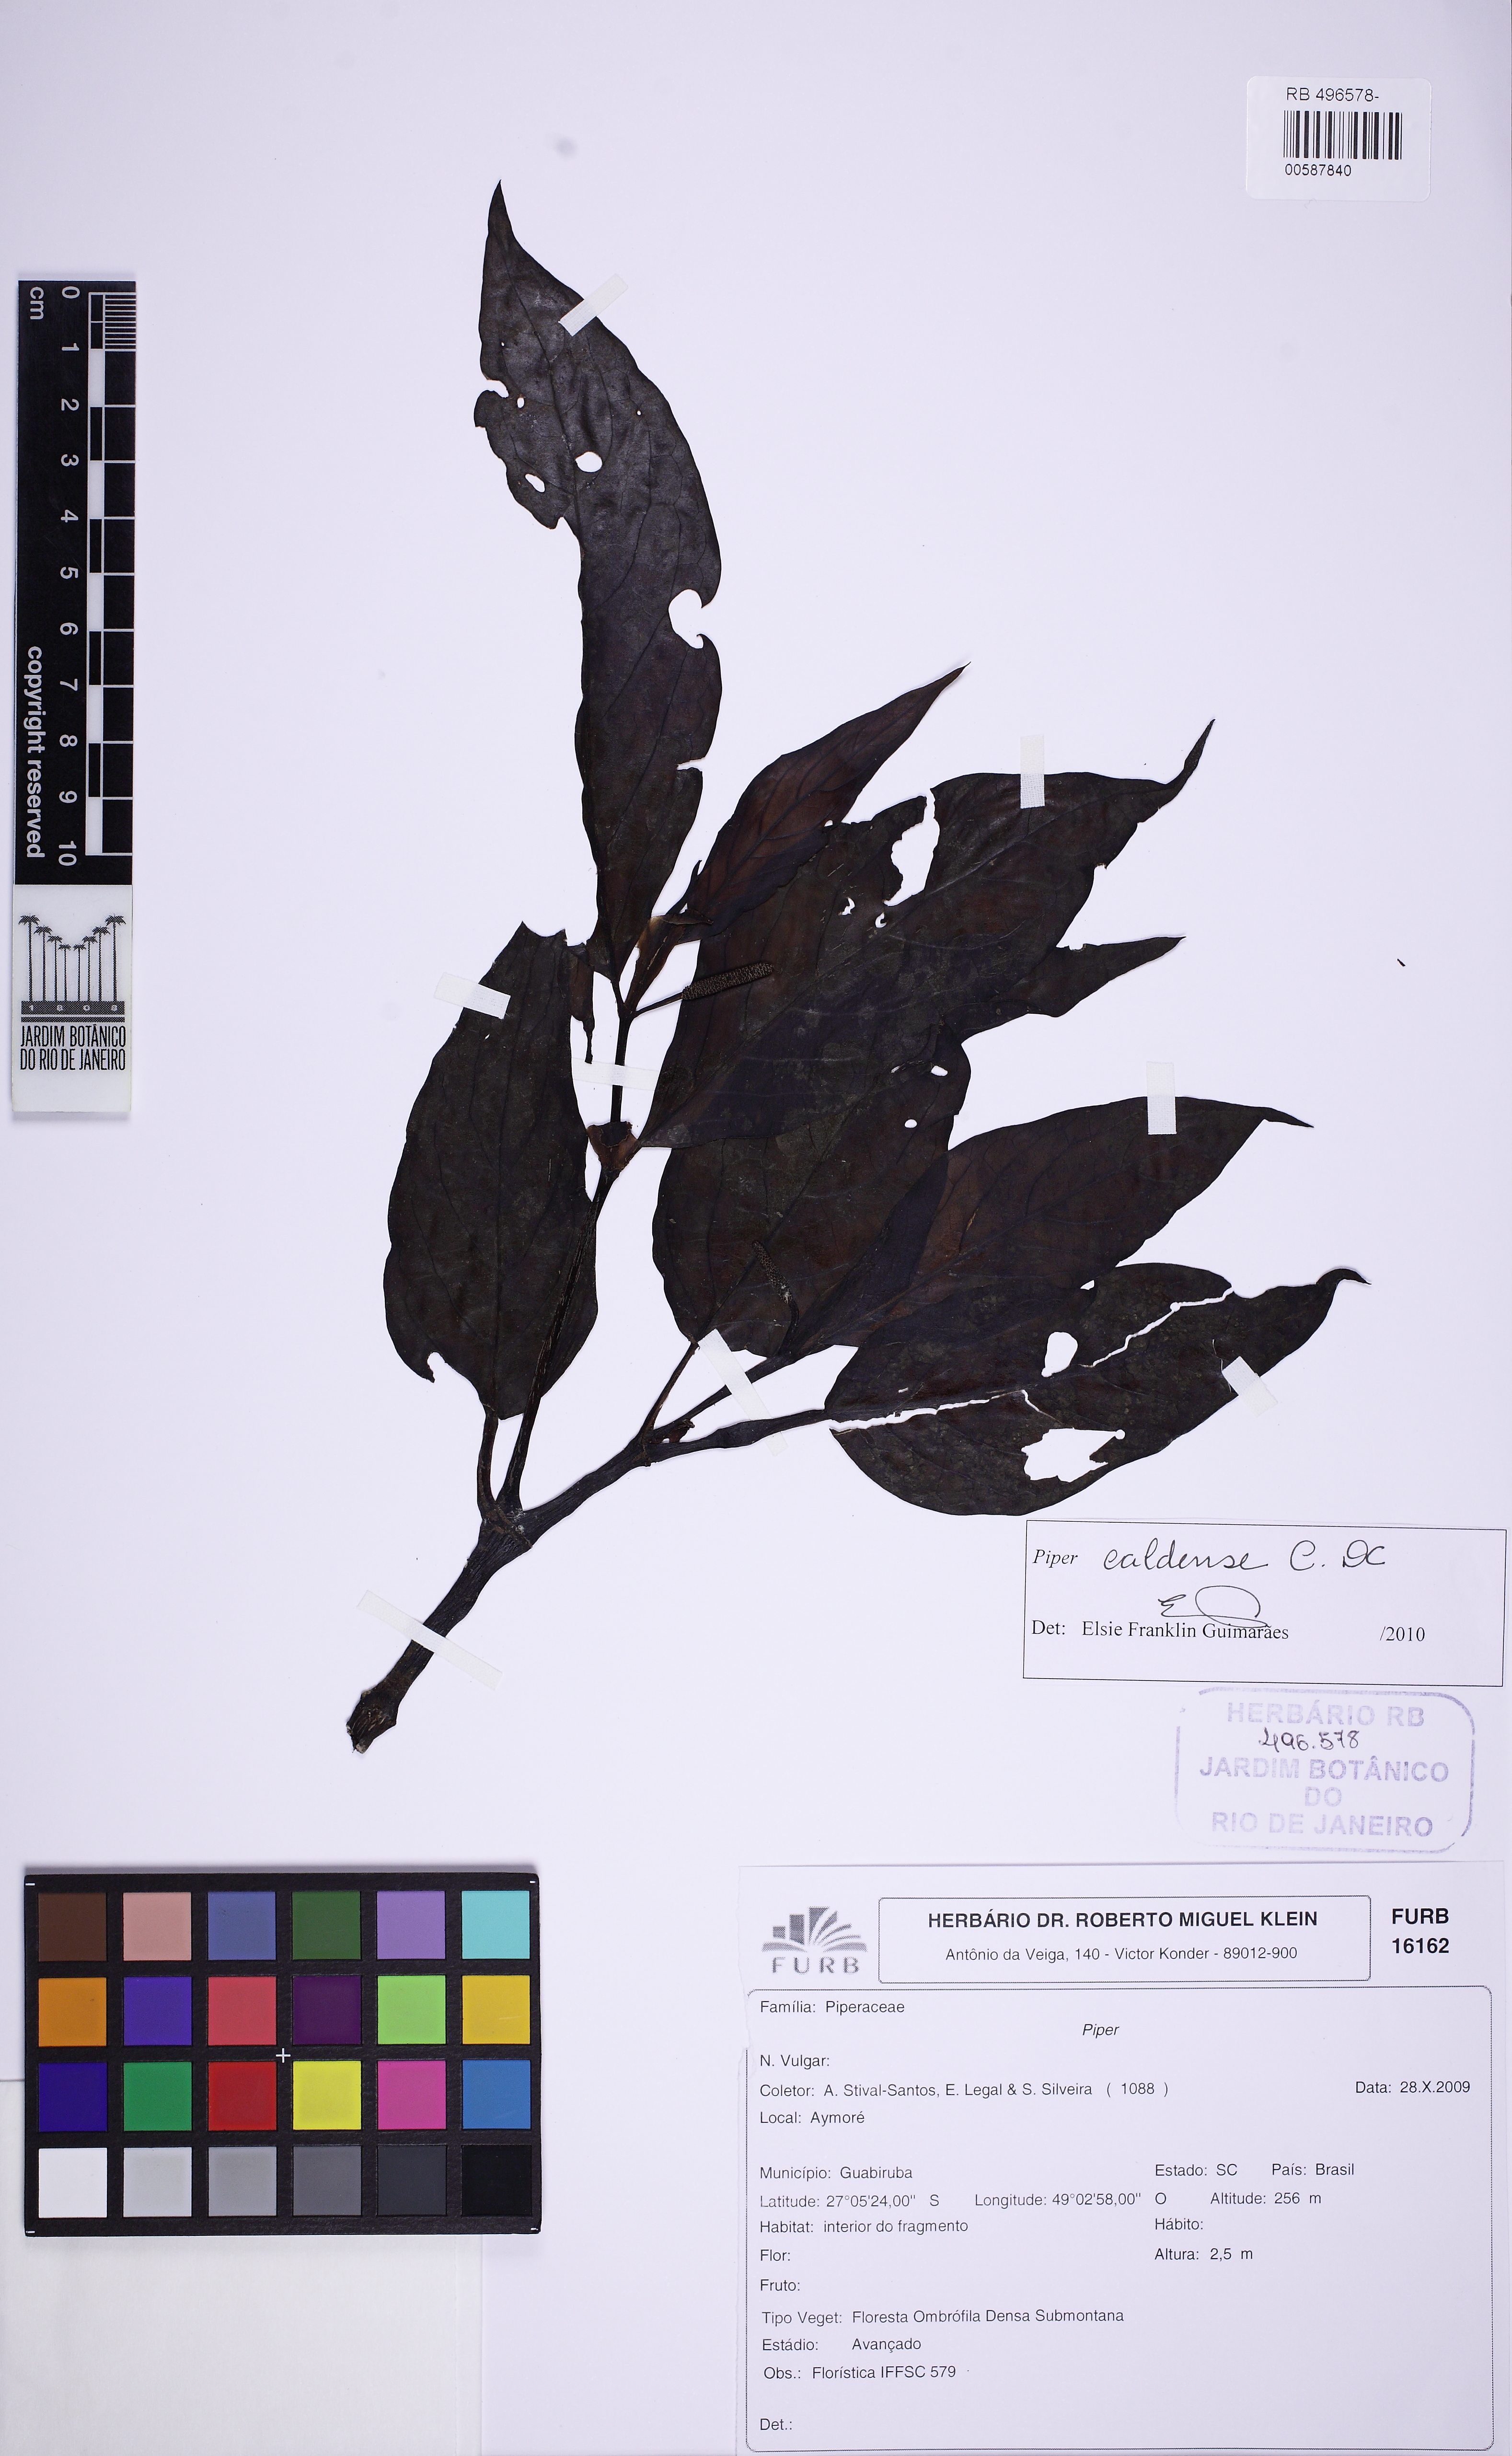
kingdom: Plantae
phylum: Tracheophyta
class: Magnoliopsida
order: Piperales
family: Piperaceae
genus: Piper
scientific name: Piper caldense
